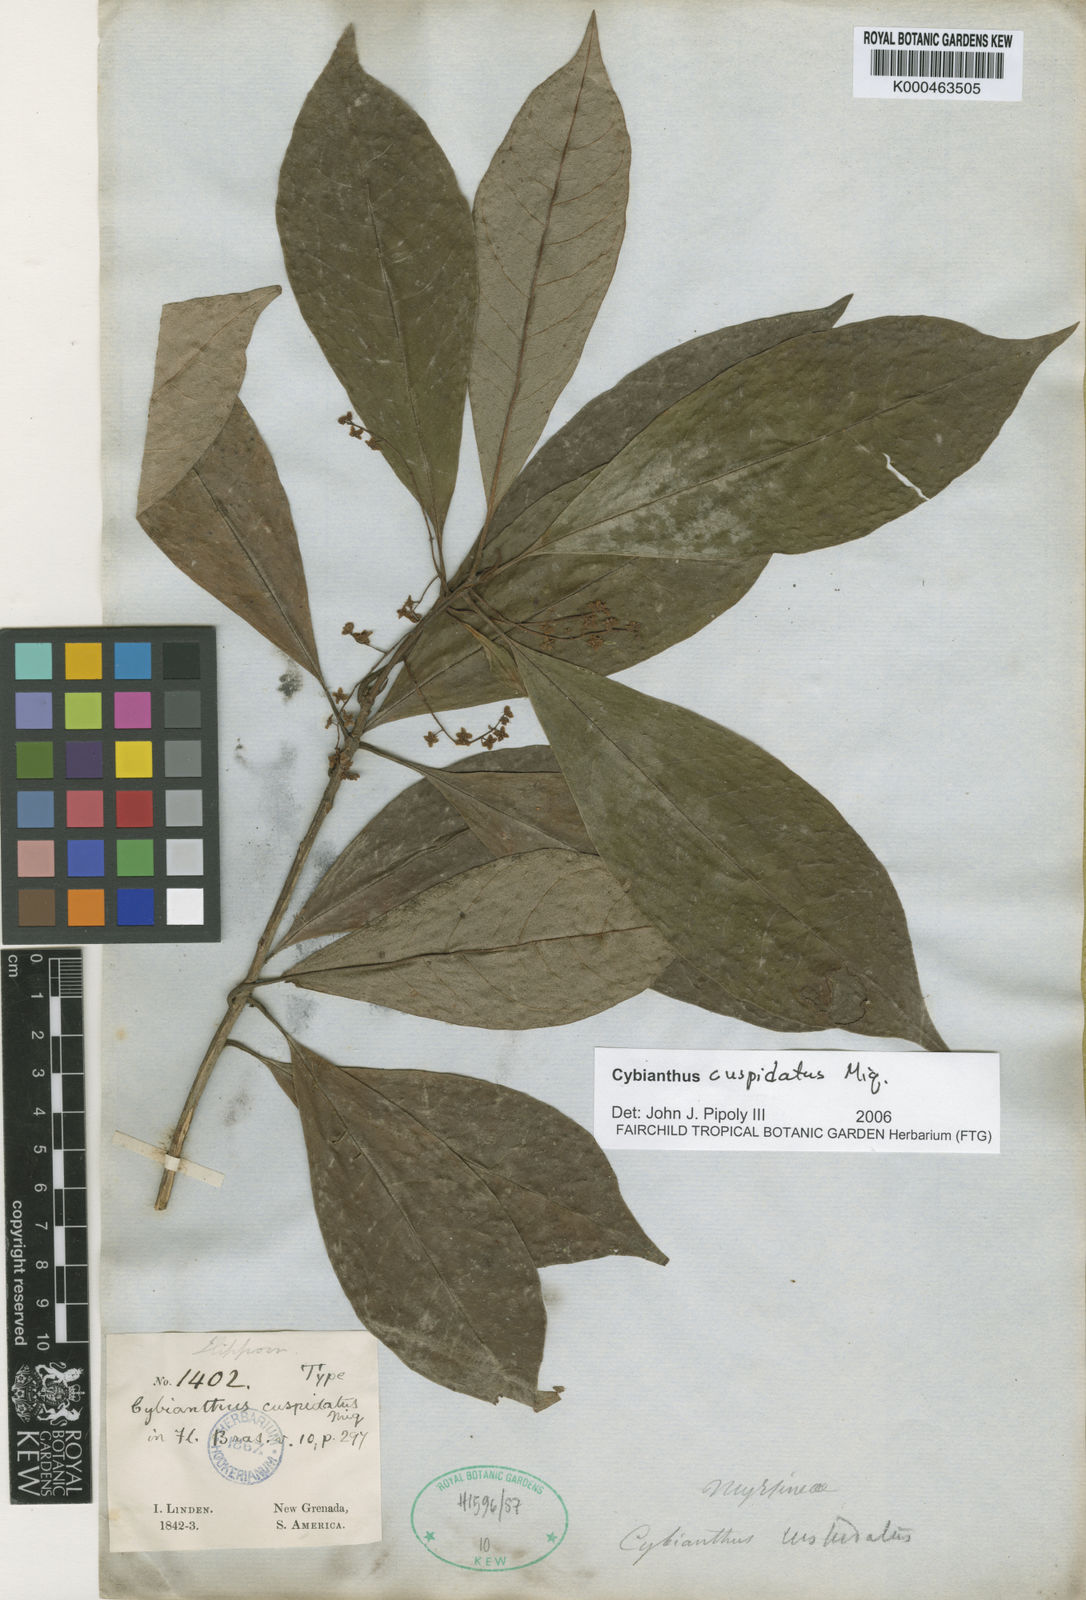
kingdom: Plantae
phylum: Tracheophyta
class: Magnoliopsida
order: Ericales
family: Primulaceae
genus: Cybianthus
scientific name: Cybianthus cuspidatus
